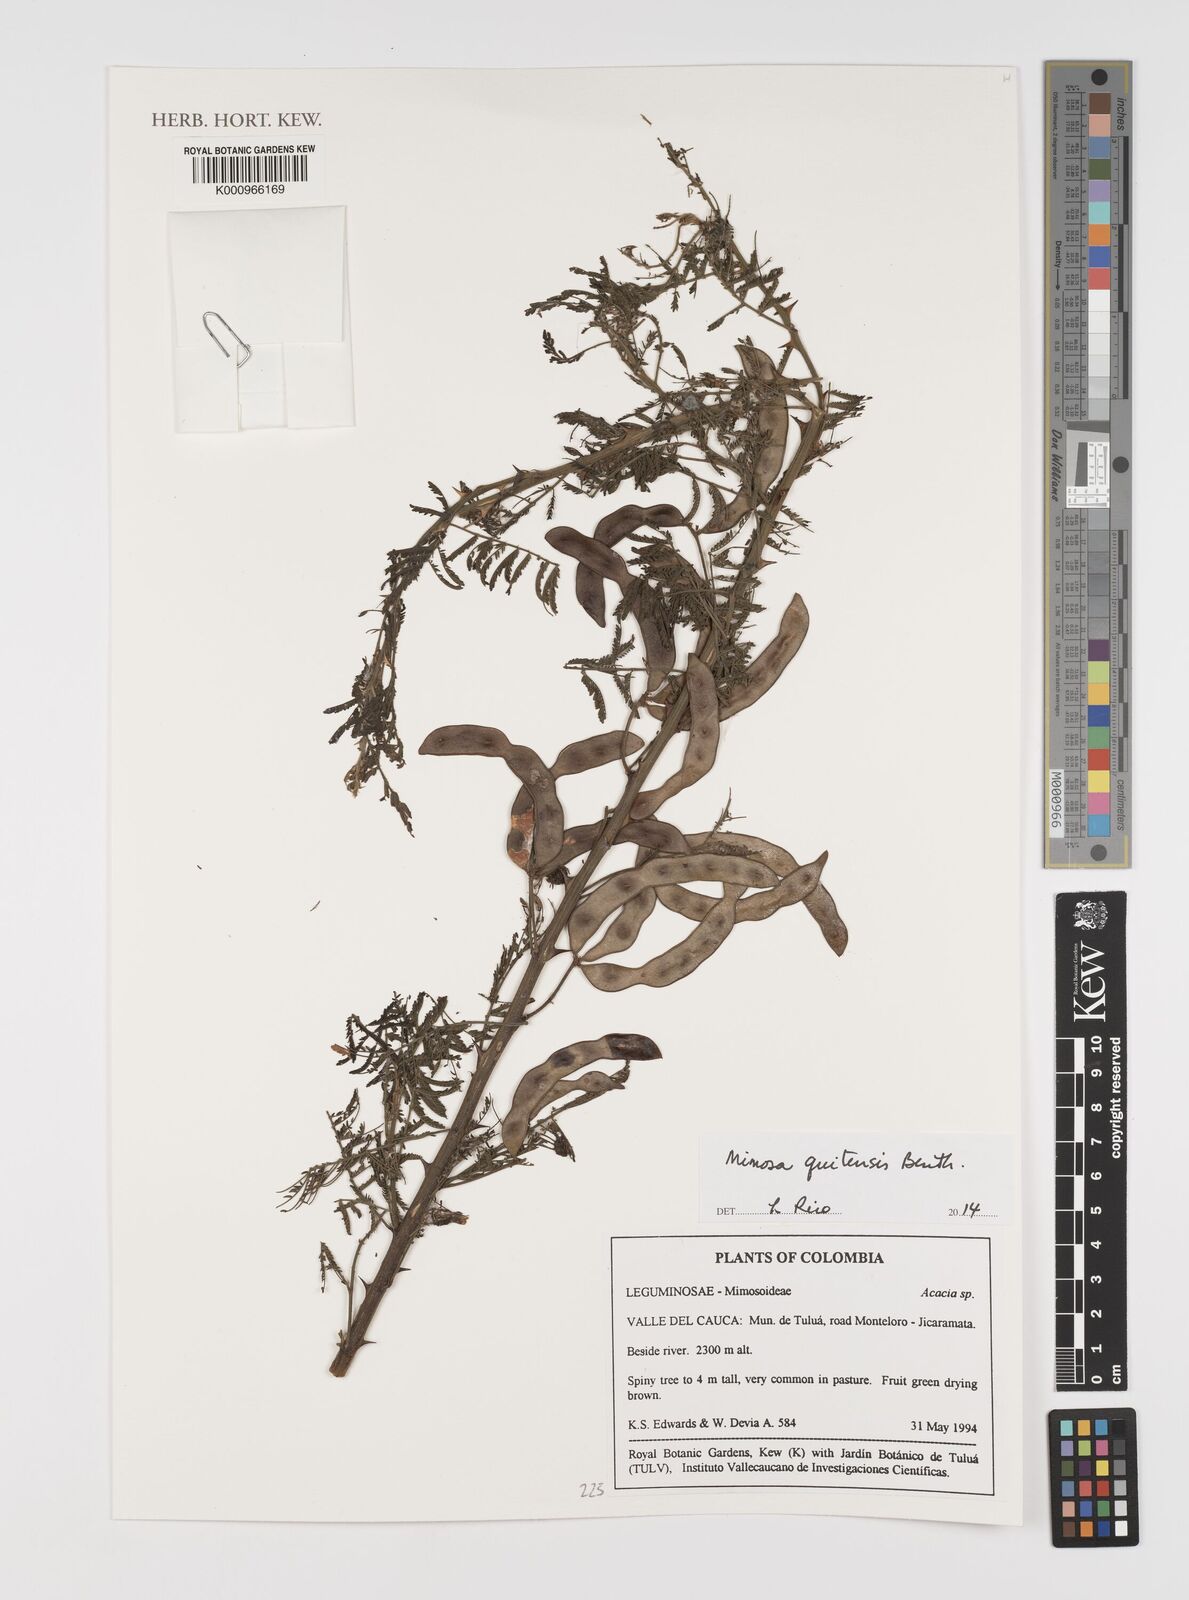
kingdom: Plantae
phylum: Tracheophyta
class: Magnoliopsida
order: Fabales
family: Fabaceae
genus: Mimosa
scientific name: Mimosa quitensis
